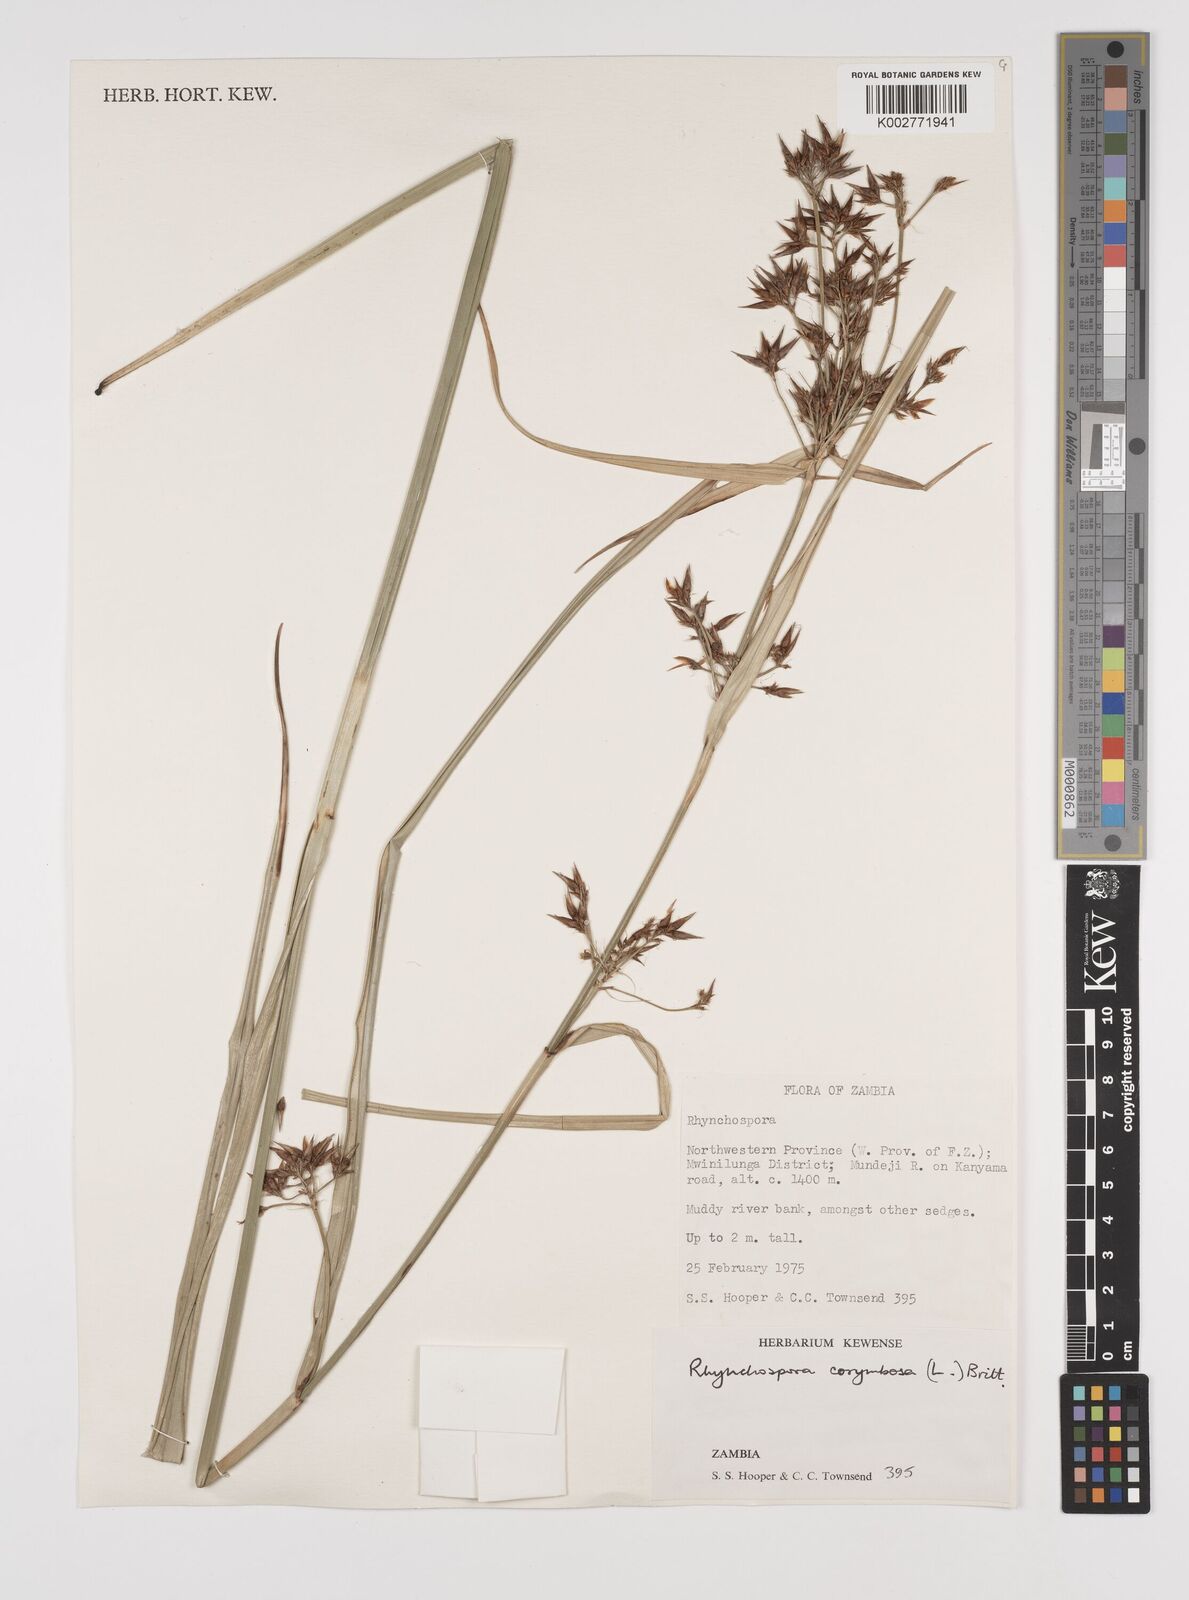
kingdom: Plantae
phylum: Tracheophyta
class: Liliopsida
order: Poales
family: Cyperaceae
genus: Rhynchospora
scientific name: Rhynchospora corymbosa
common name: Golden beak sedge
